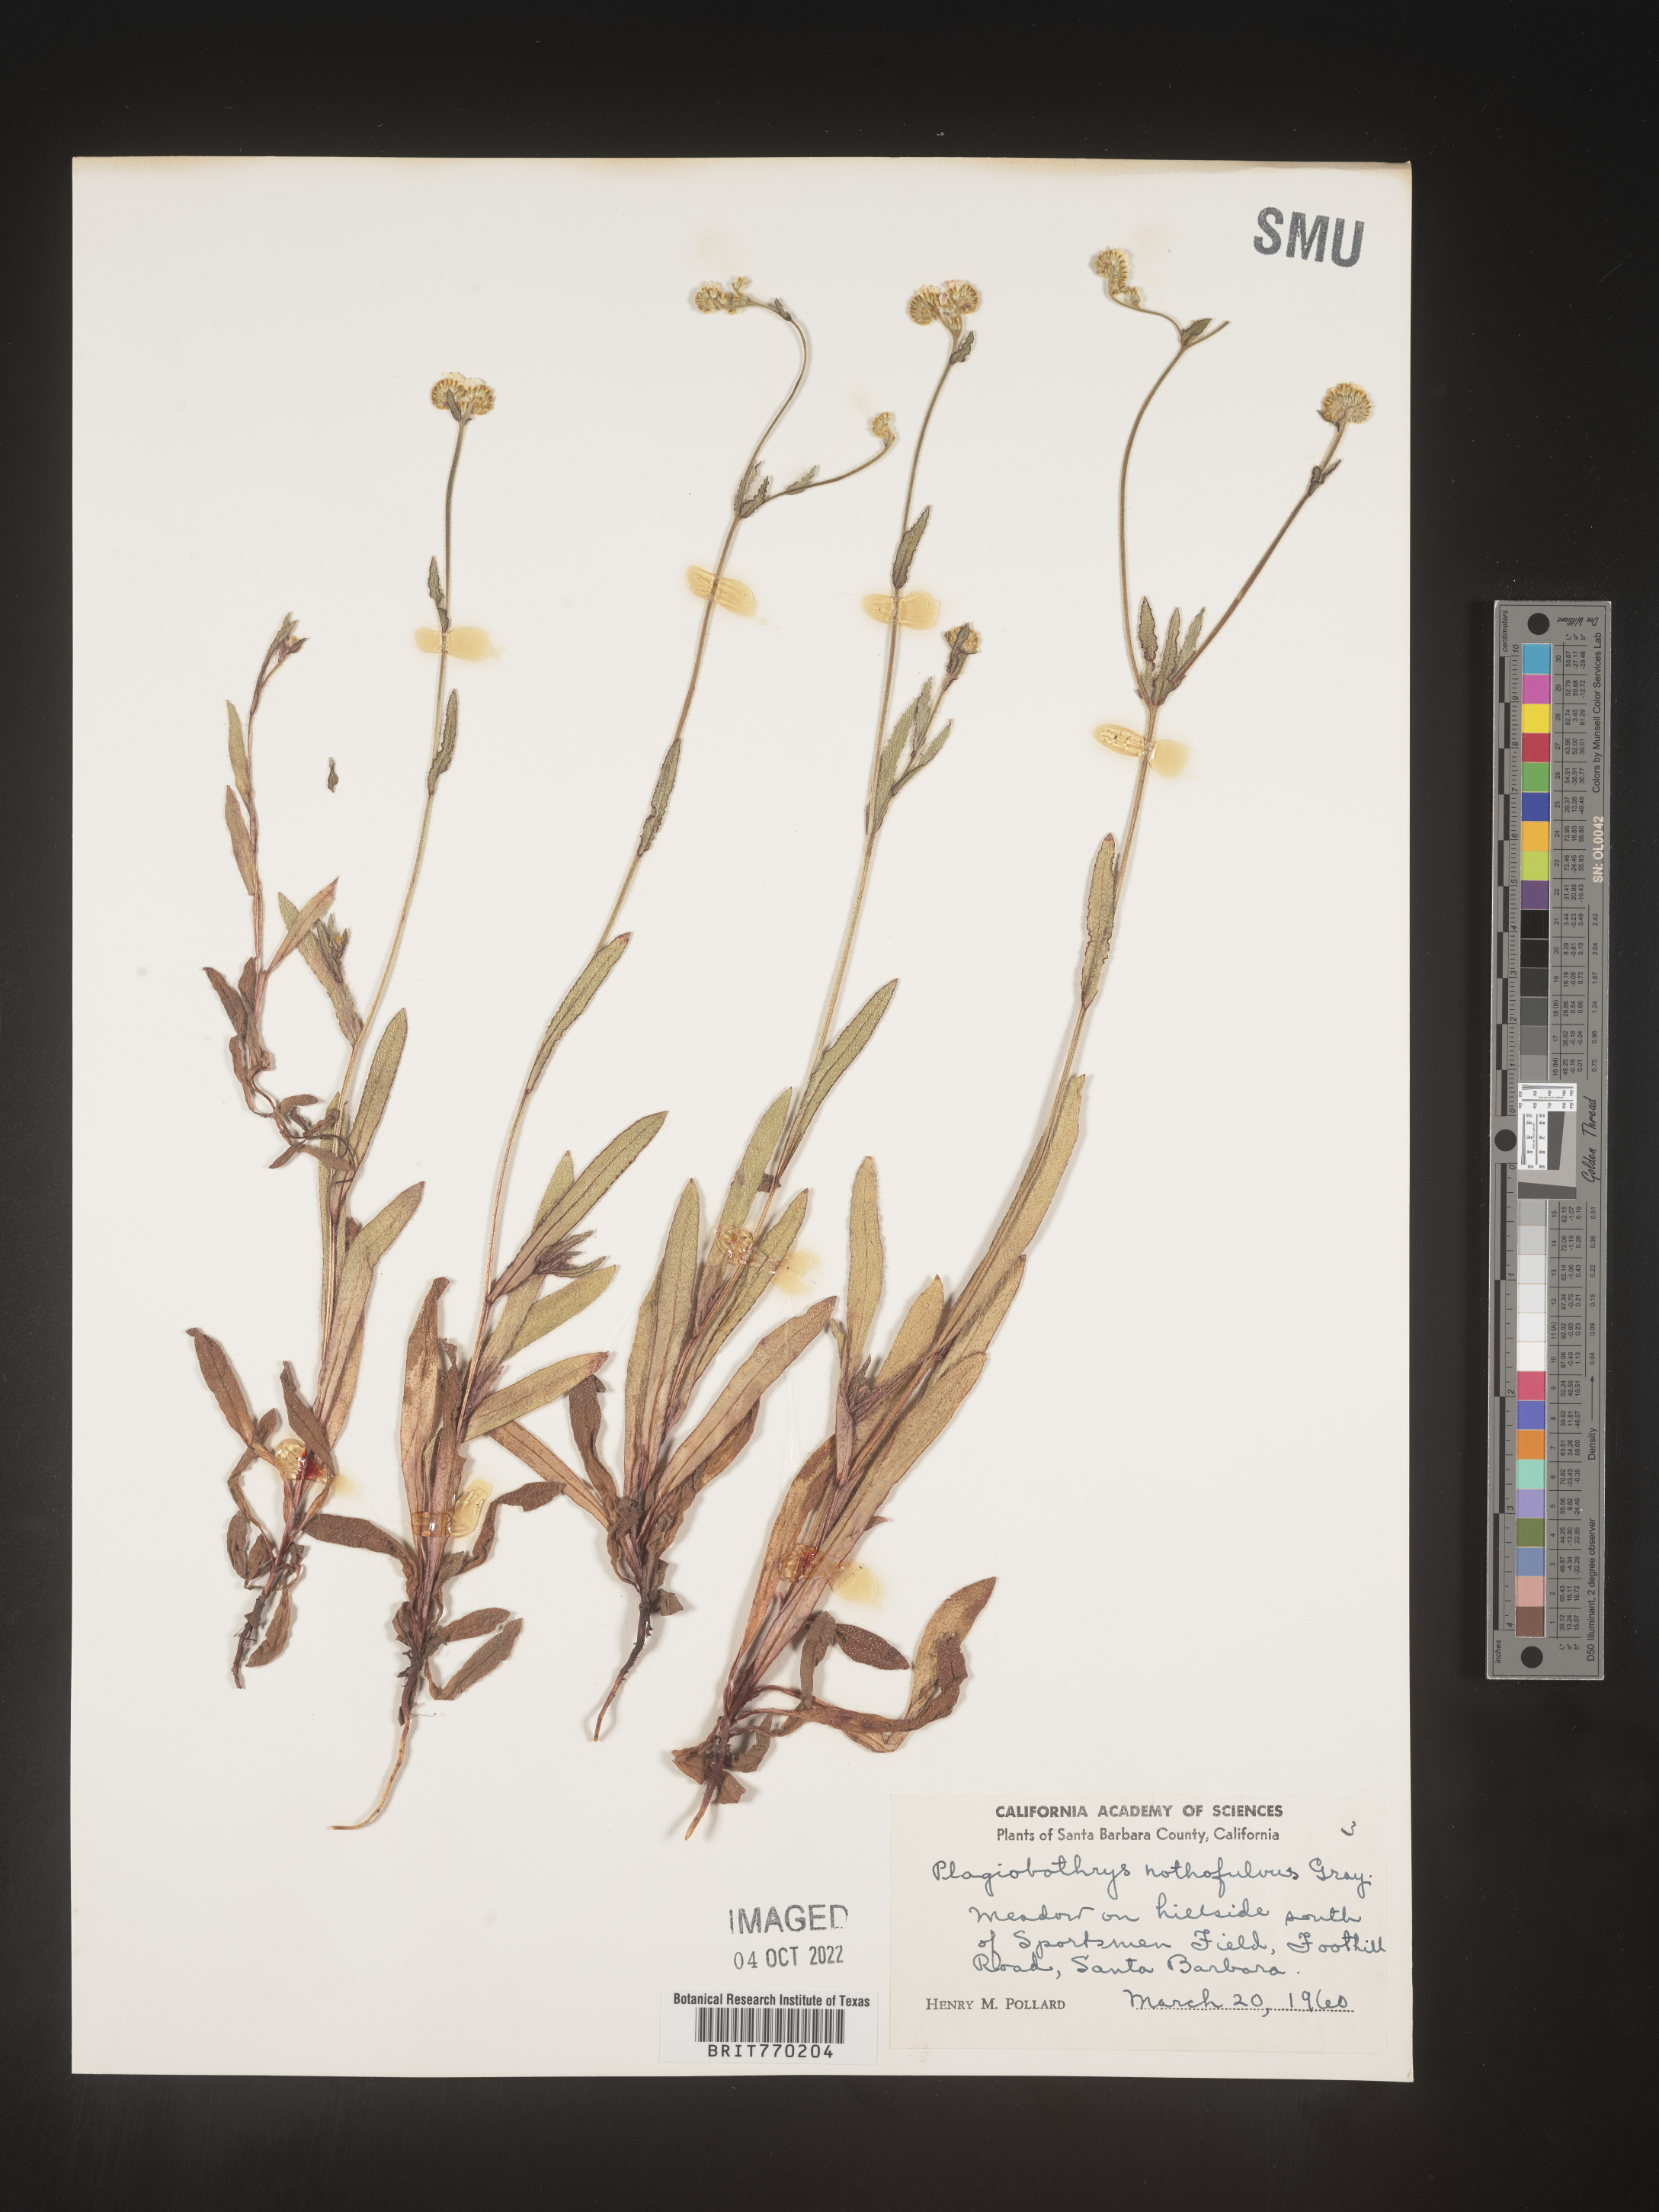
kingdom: Plantae
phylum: Tracheophyta
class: Magnoliopsida
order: Boraginales
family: Boraginaceae
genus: Plagiobothrys
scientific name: Plagiobothrys
